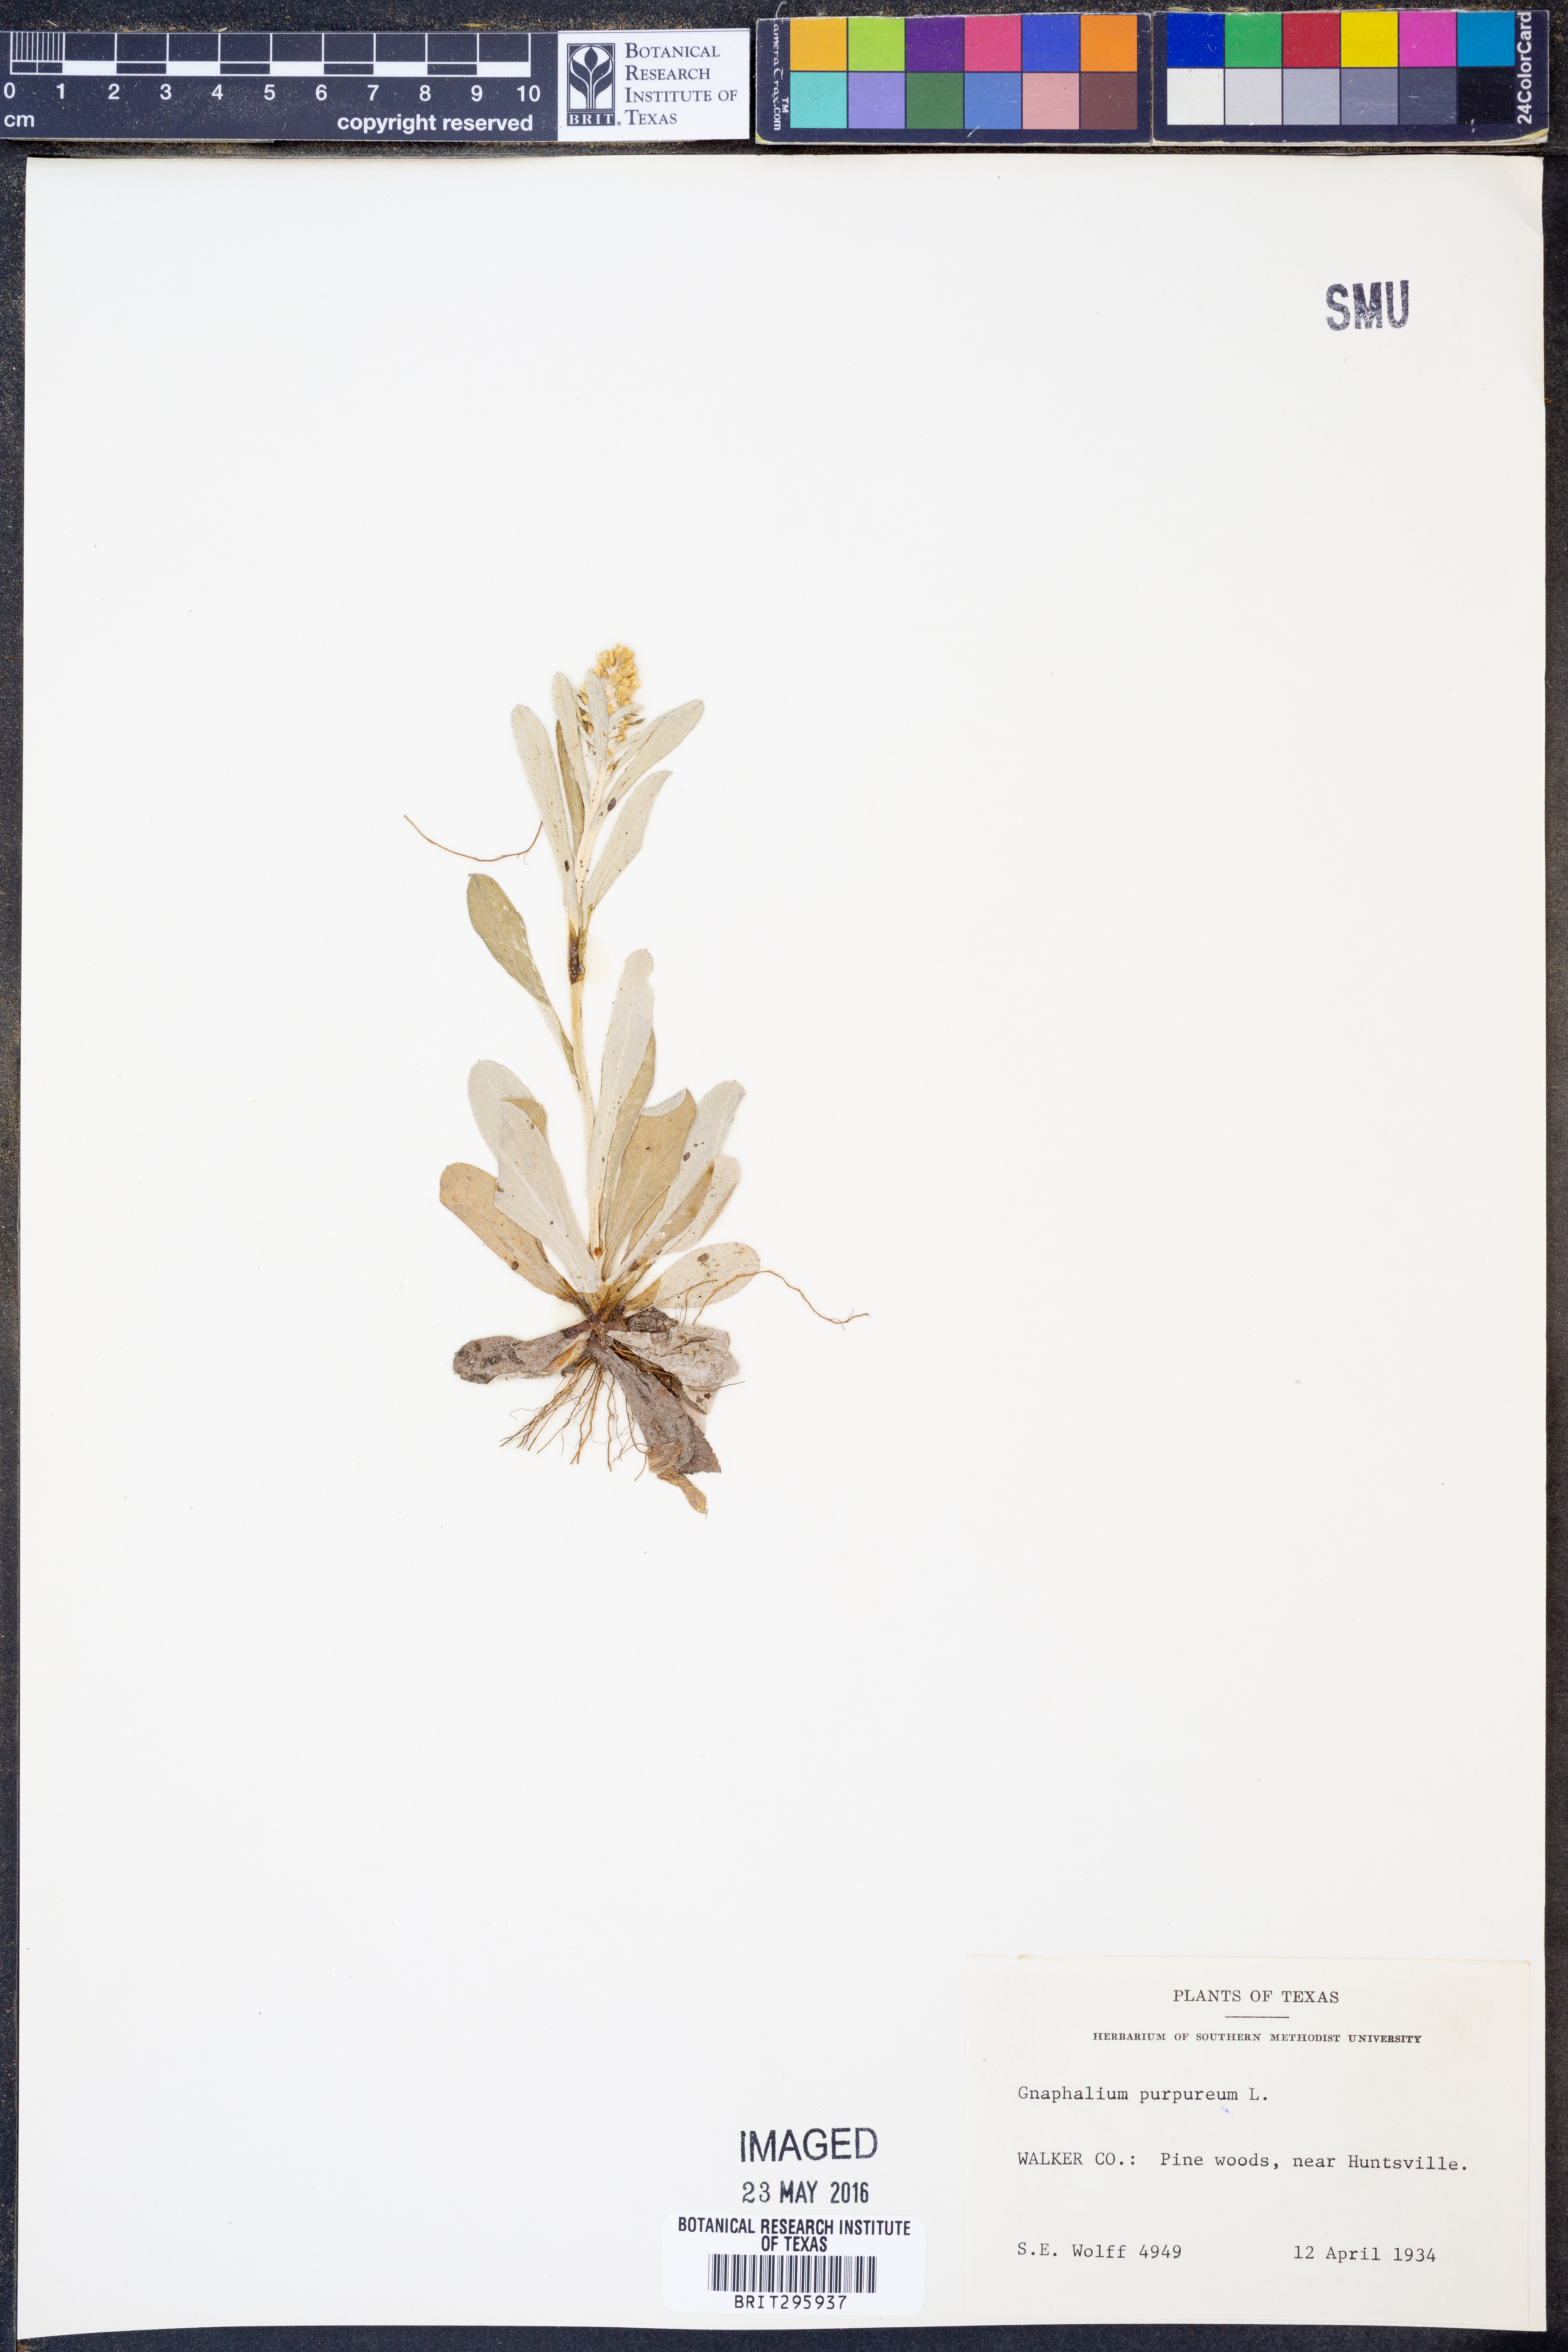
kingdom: Plantae
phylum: Tracheophyta
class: Magnoliopsida
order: Asterales
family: Asteraceae
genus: Gamochaeta
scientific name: Gamochaeta purpurea
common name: Purple cudweed
